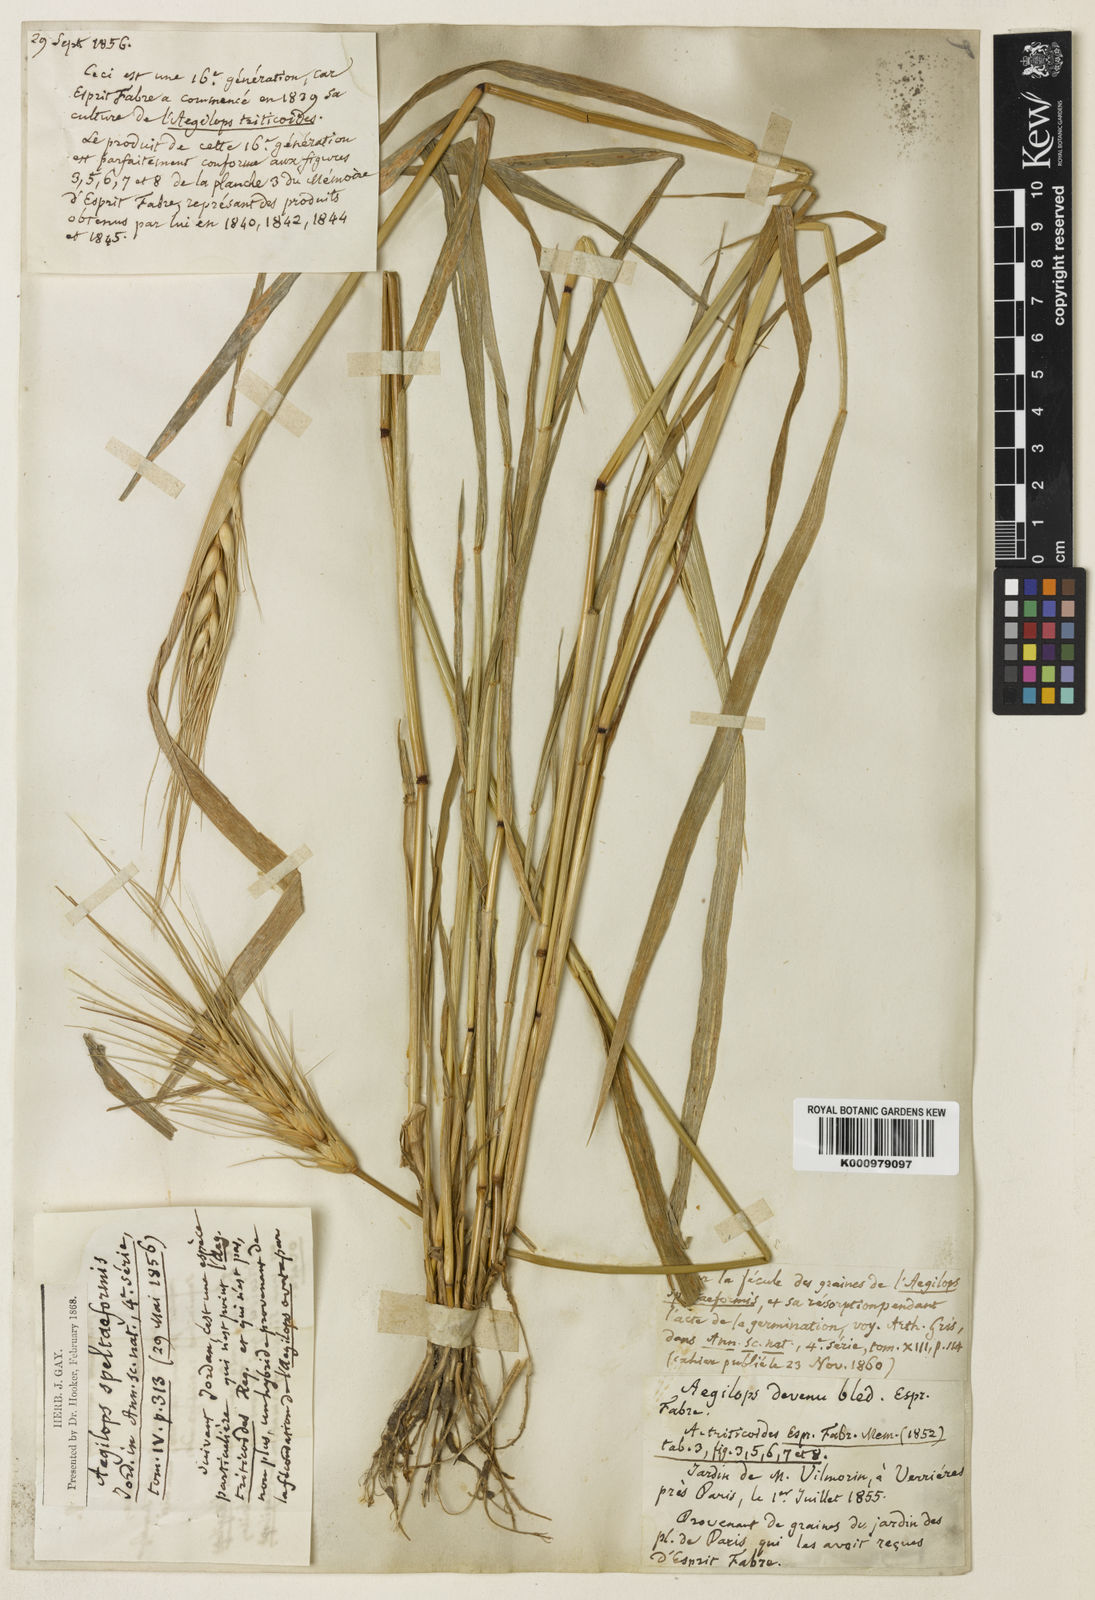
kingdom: Plantae
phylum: Tracheophyta
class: Liliopsida
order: Poales
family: Poaceae
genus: Aegilotriticum
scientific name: Aegilotriticum triticoides
